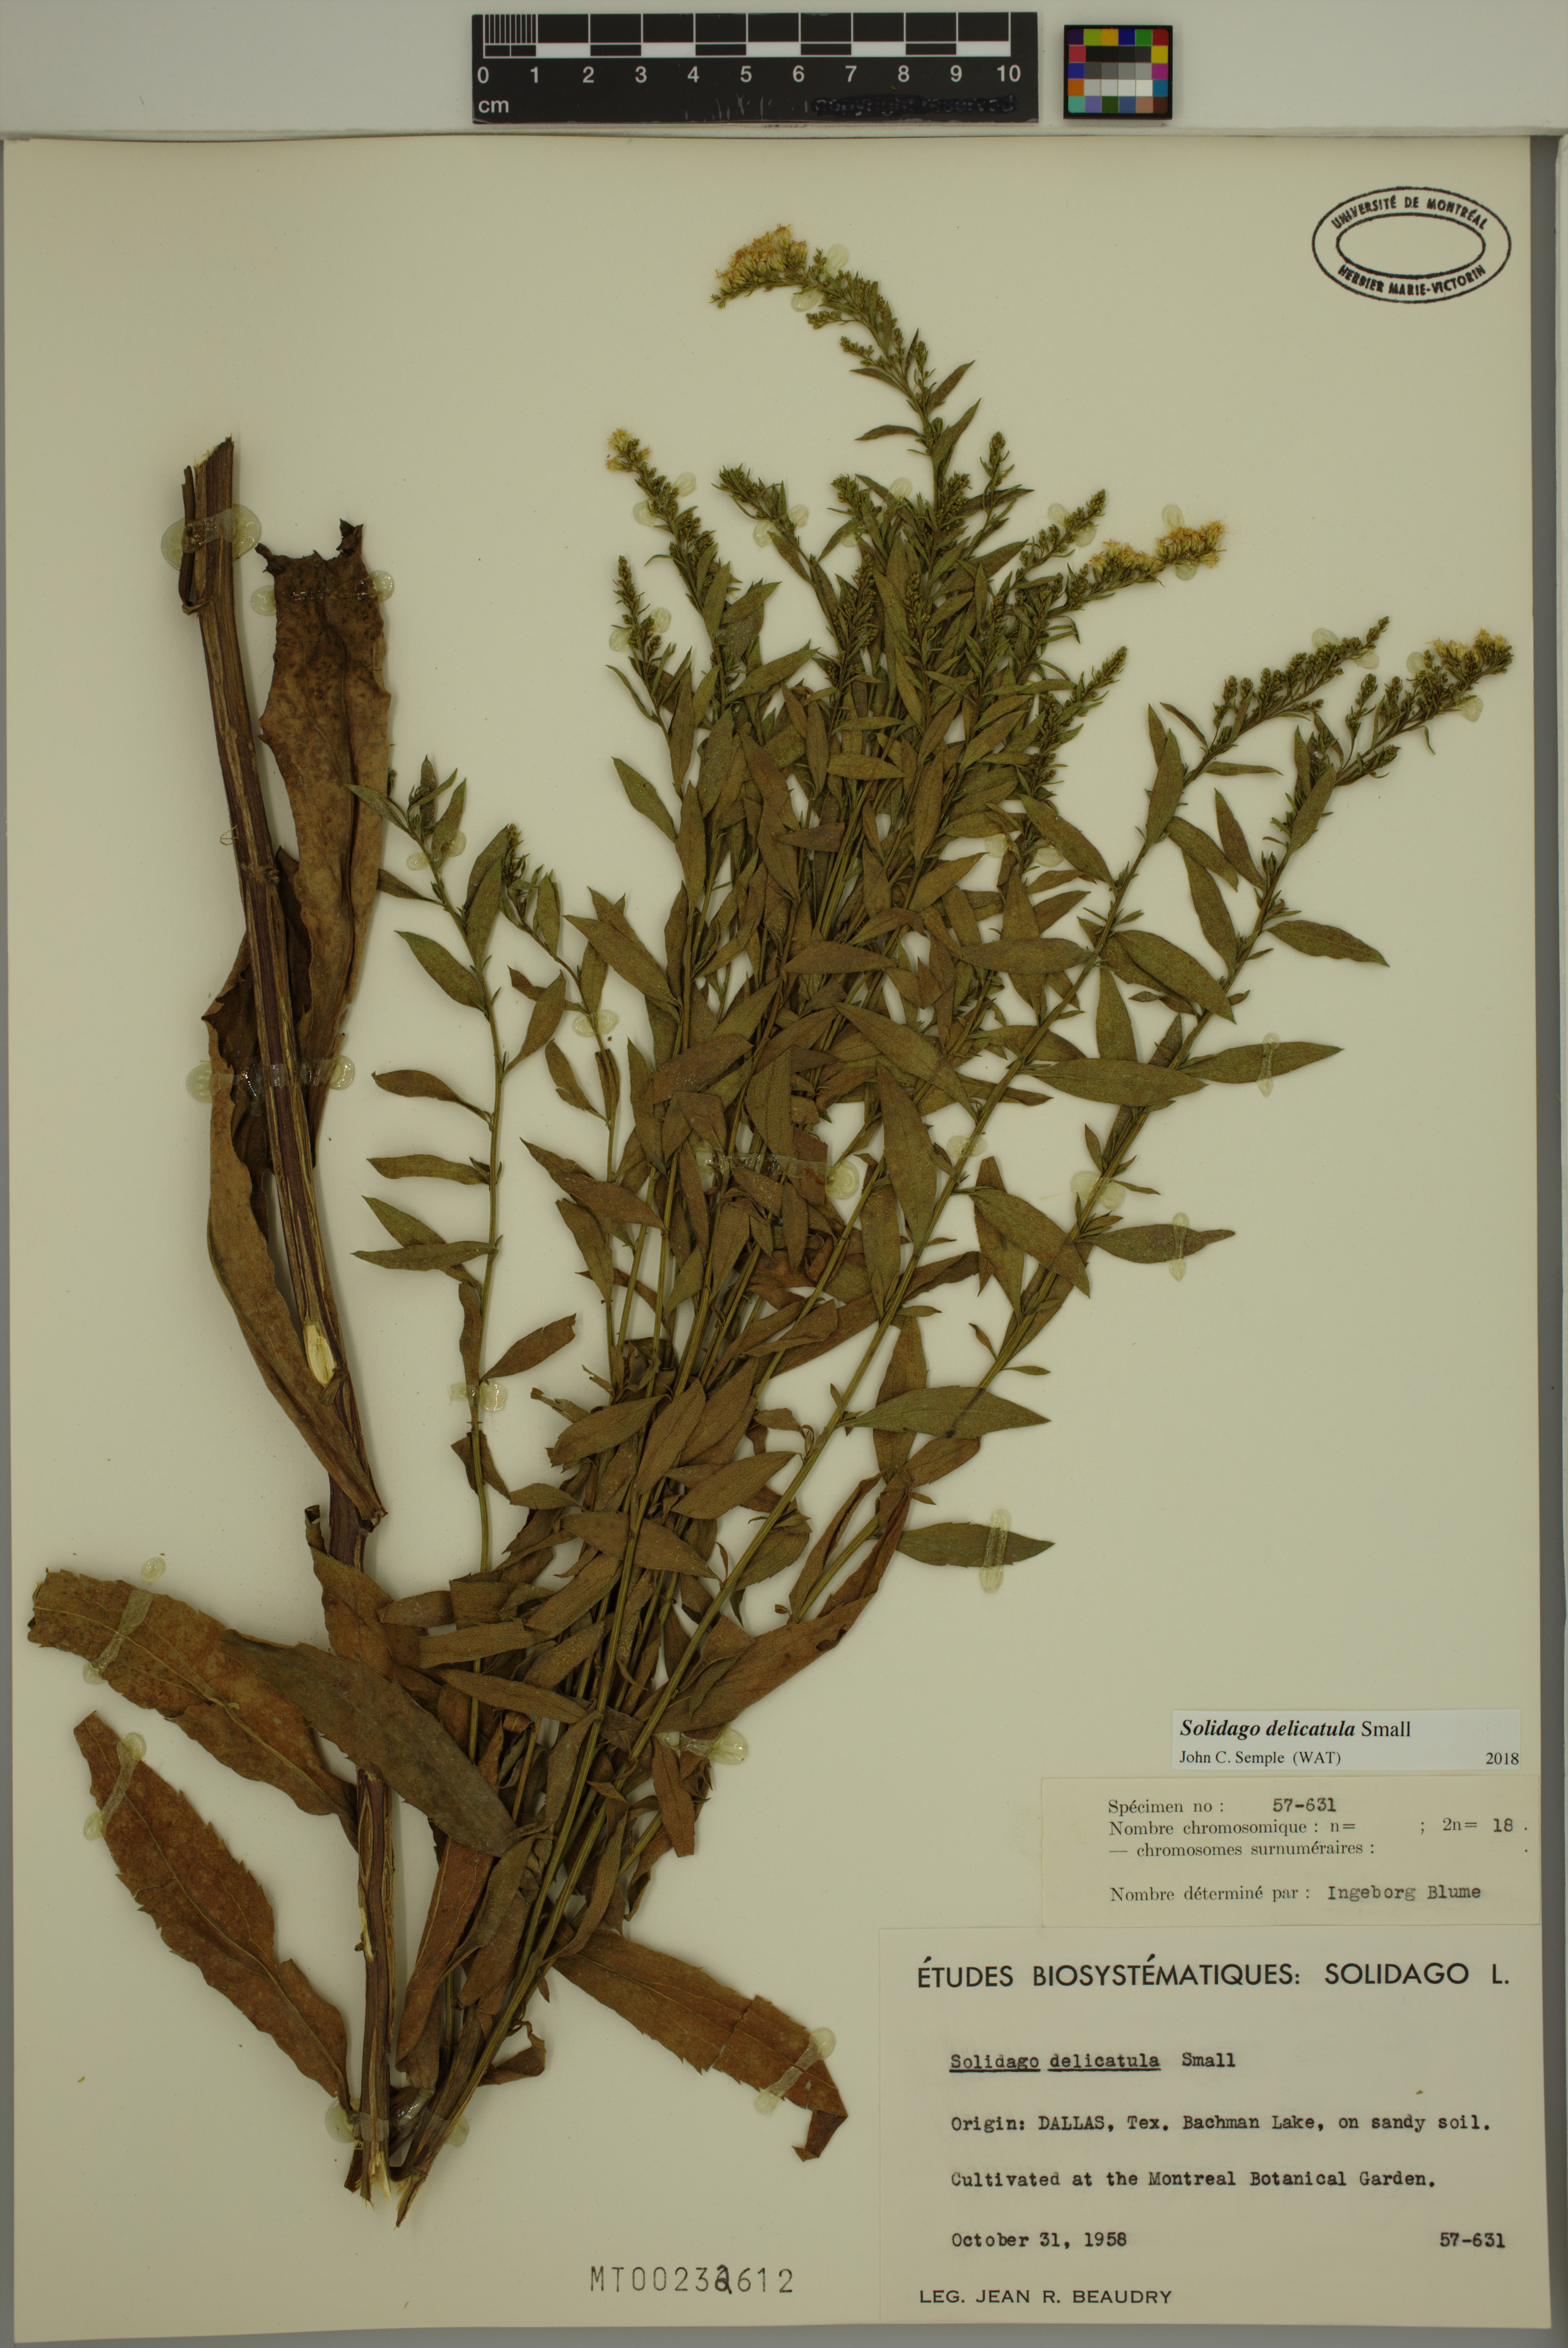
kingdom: Plantae
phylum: Tracheophyta
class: Magnoliopsida
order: Asterales
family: Asteraceae
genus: Solidago
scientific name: Solidago delicatula
